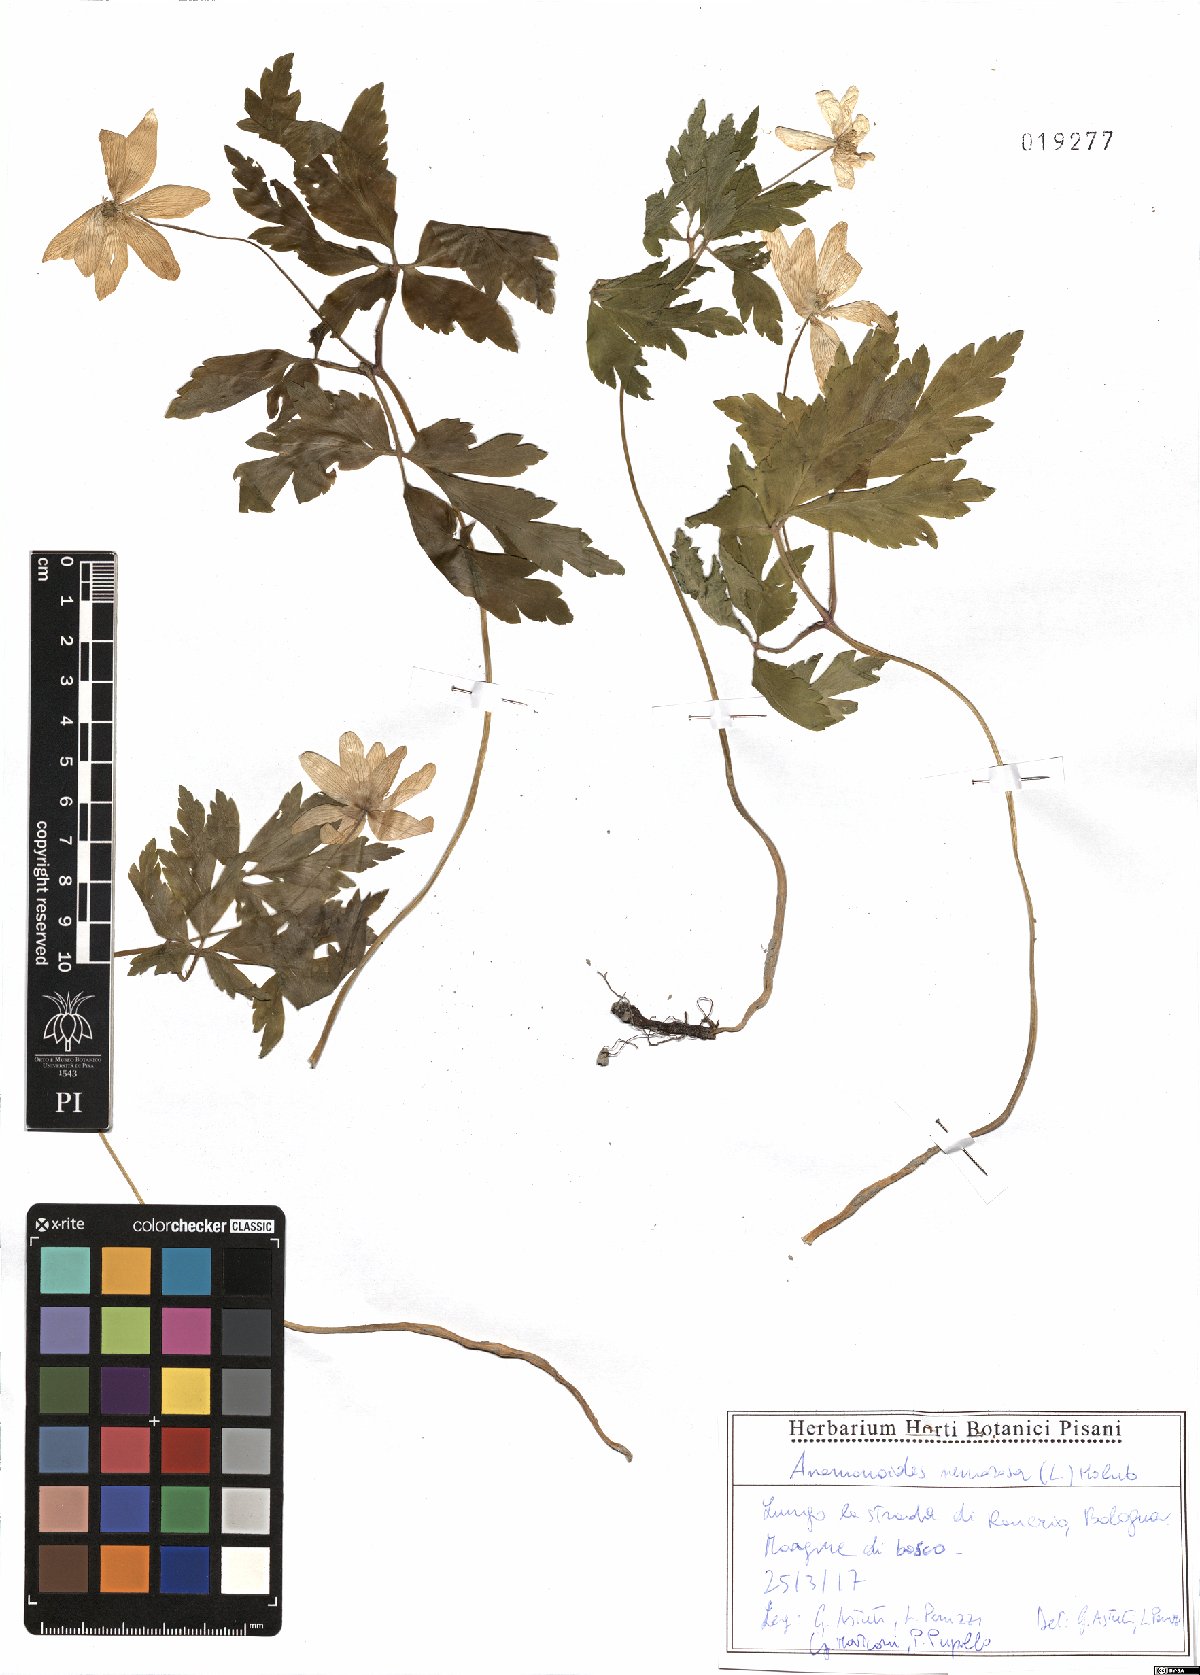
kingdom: Plantae
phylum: Tracheophyta
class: Magnoliopsida
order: Ranunculales
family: Ranunculaceae
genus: Anemone
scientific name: Anemone nemorosa
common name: Wood anemone
